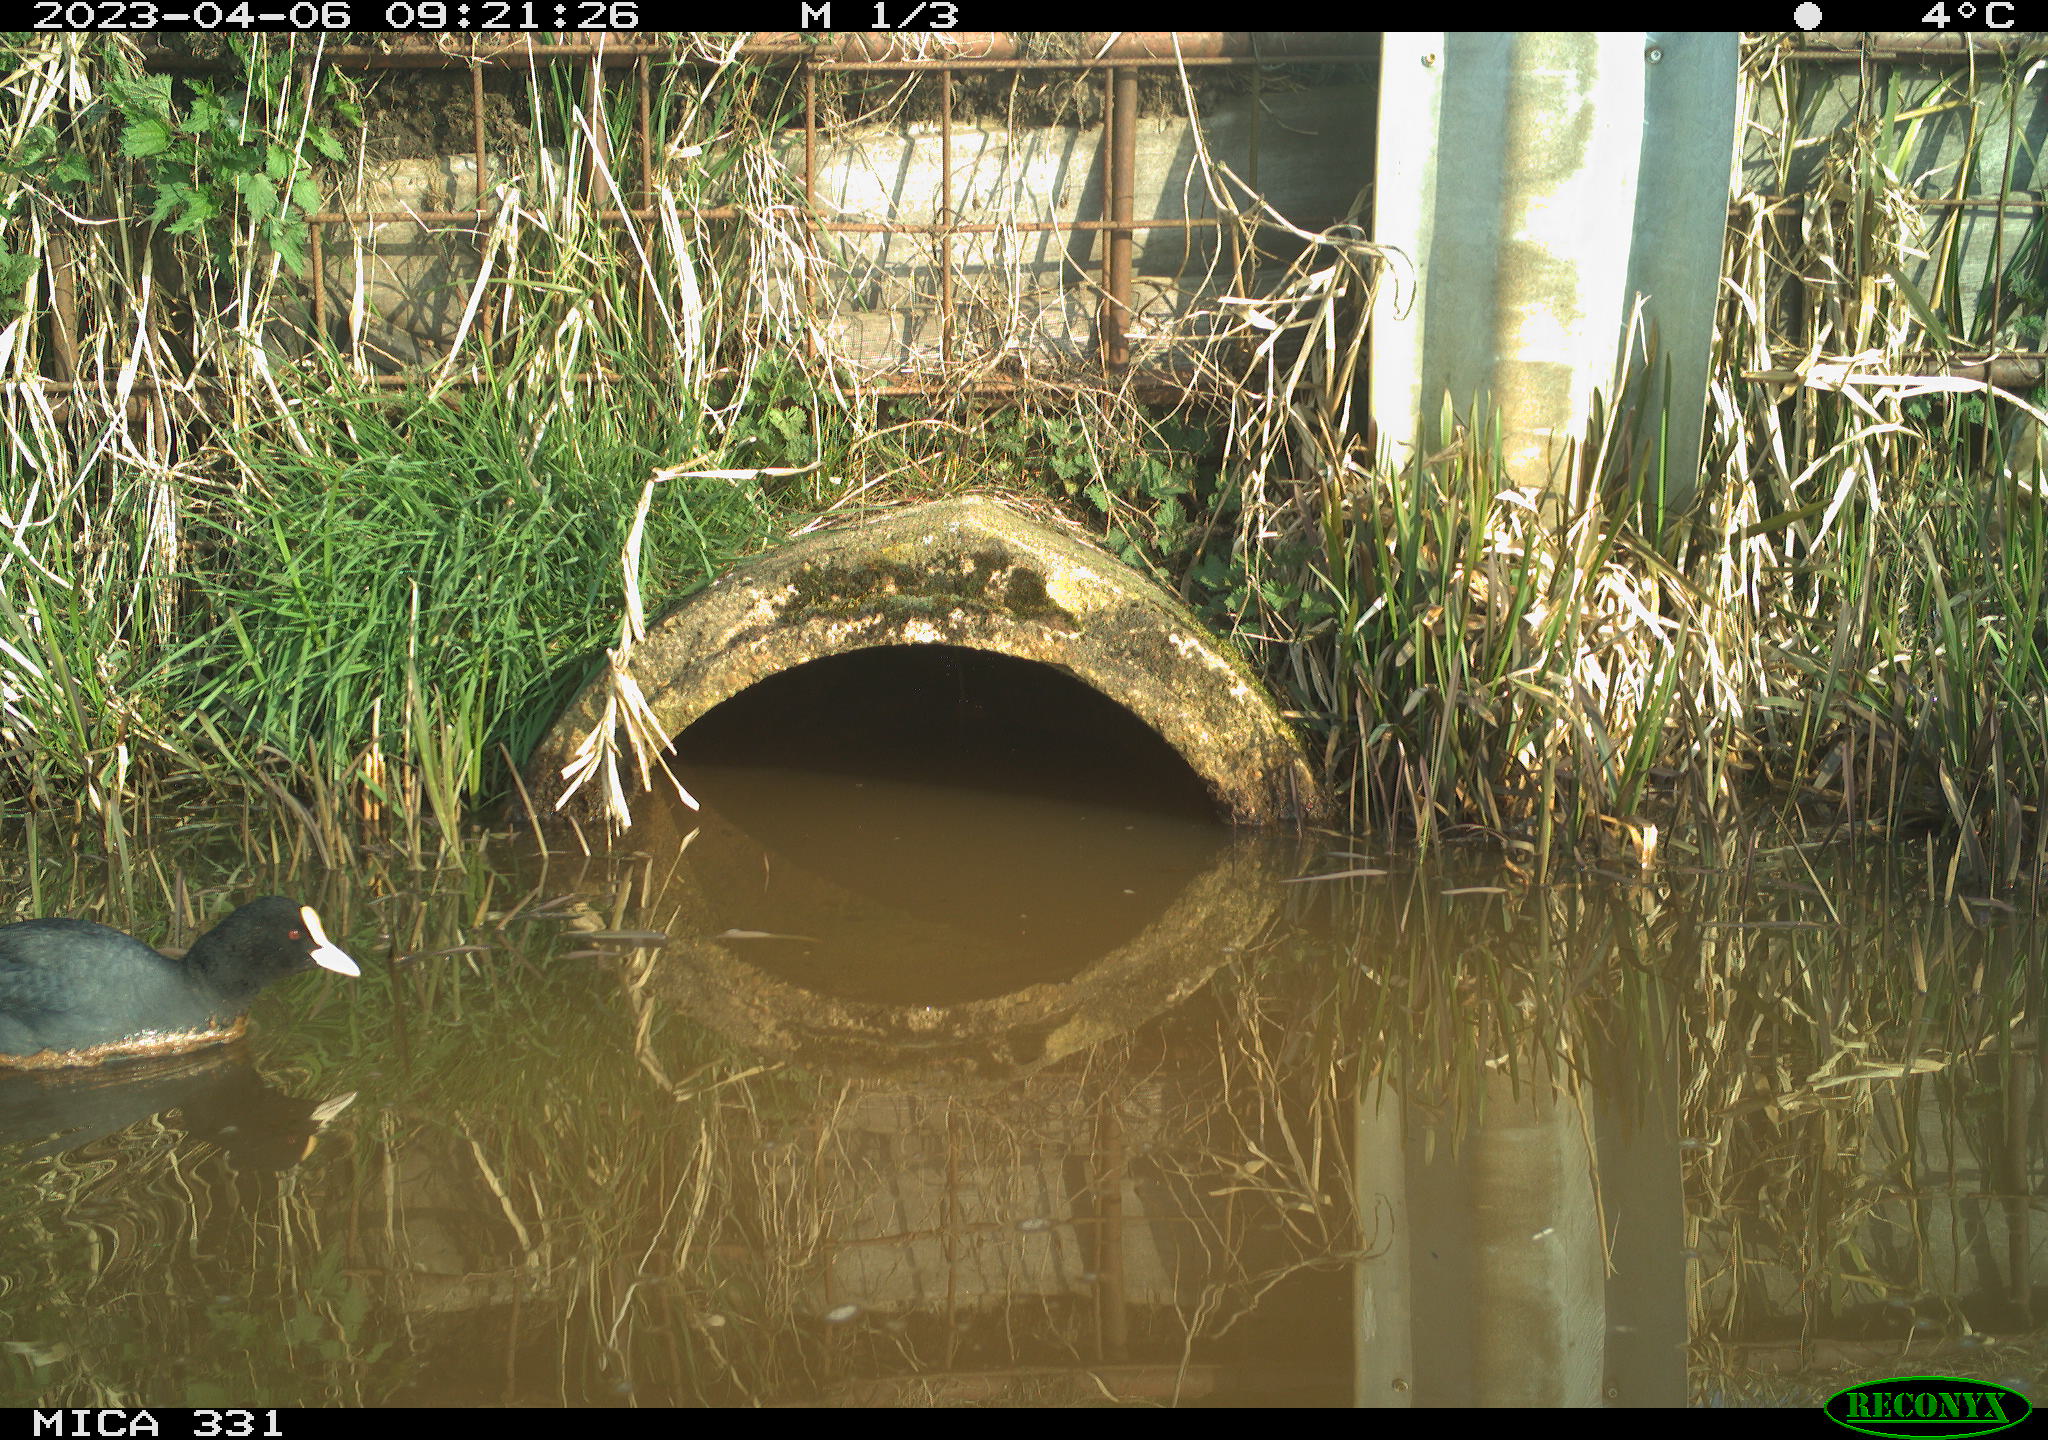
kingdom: Animalia
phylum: Chordata
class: Aves
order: Gruiformes
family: Rallidae
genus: Fulica
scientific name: Fulica atra
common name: Eurasian coot
